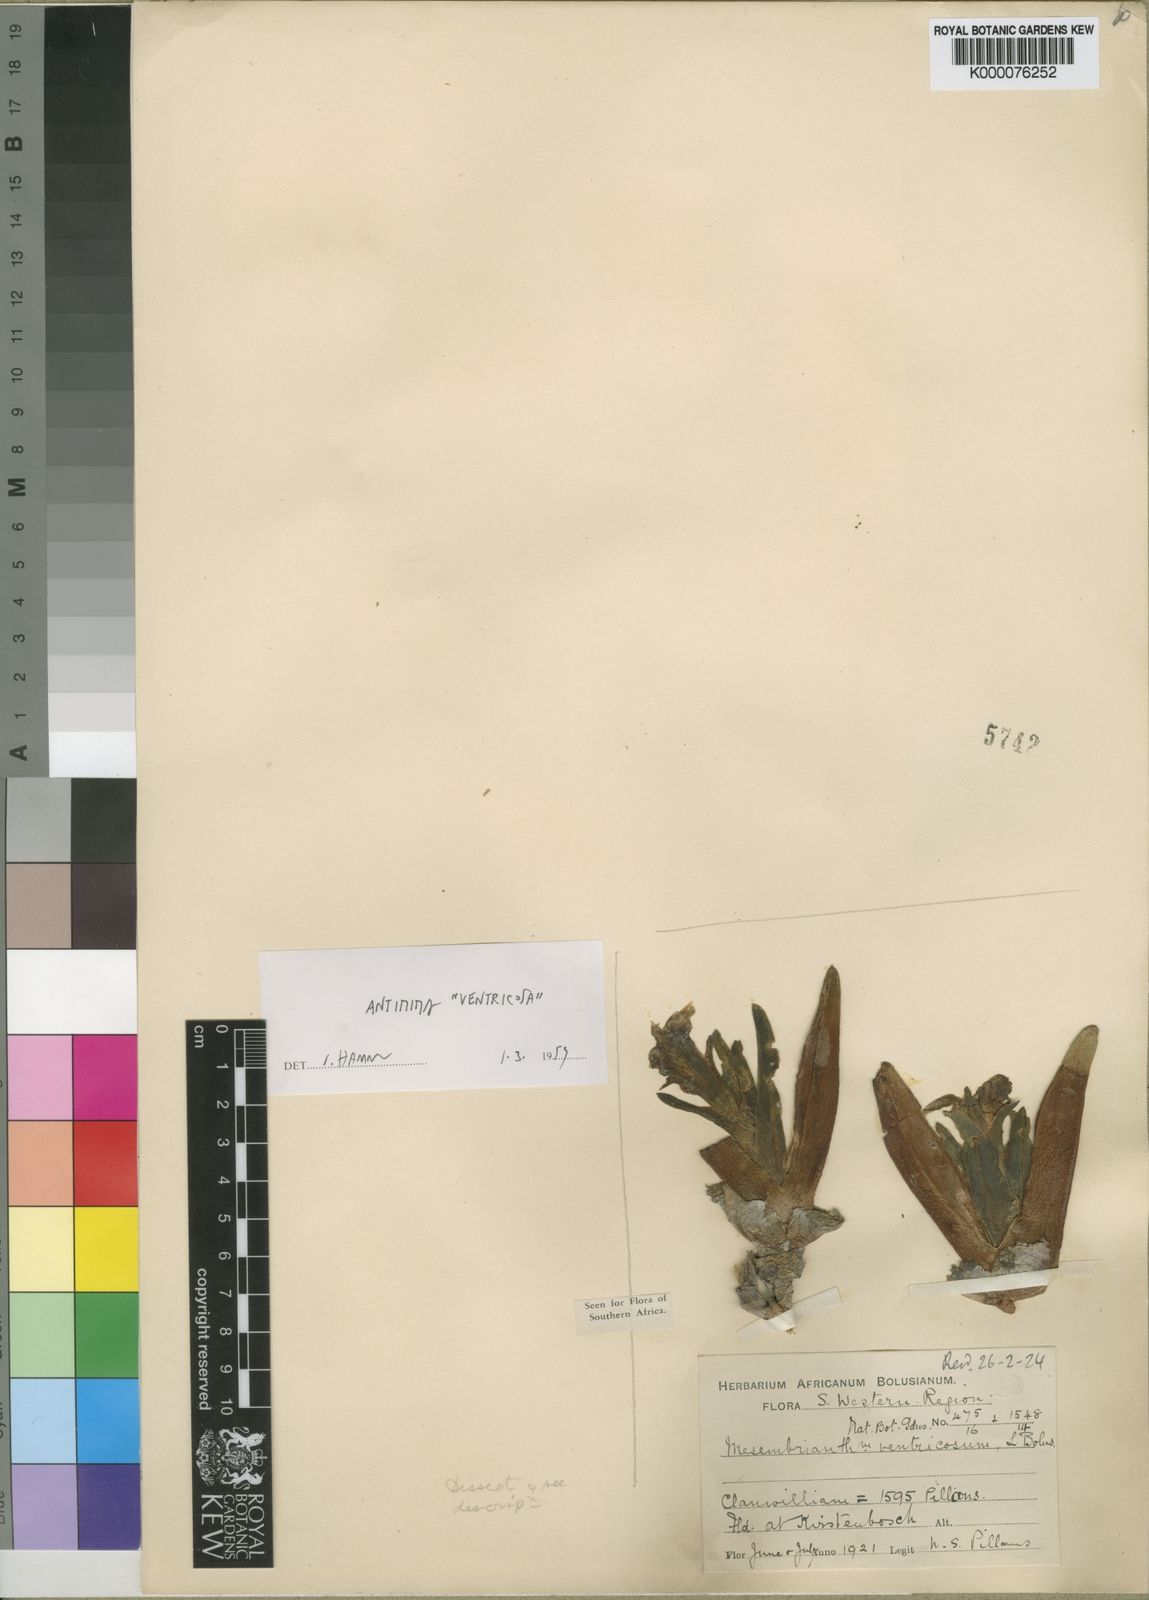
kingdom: Plantae
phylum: Tracheophyta
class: Magnoliopsida
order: Caryophyllales
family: Aizoaceae
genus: Antimima
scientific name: Antimima ventricosa
